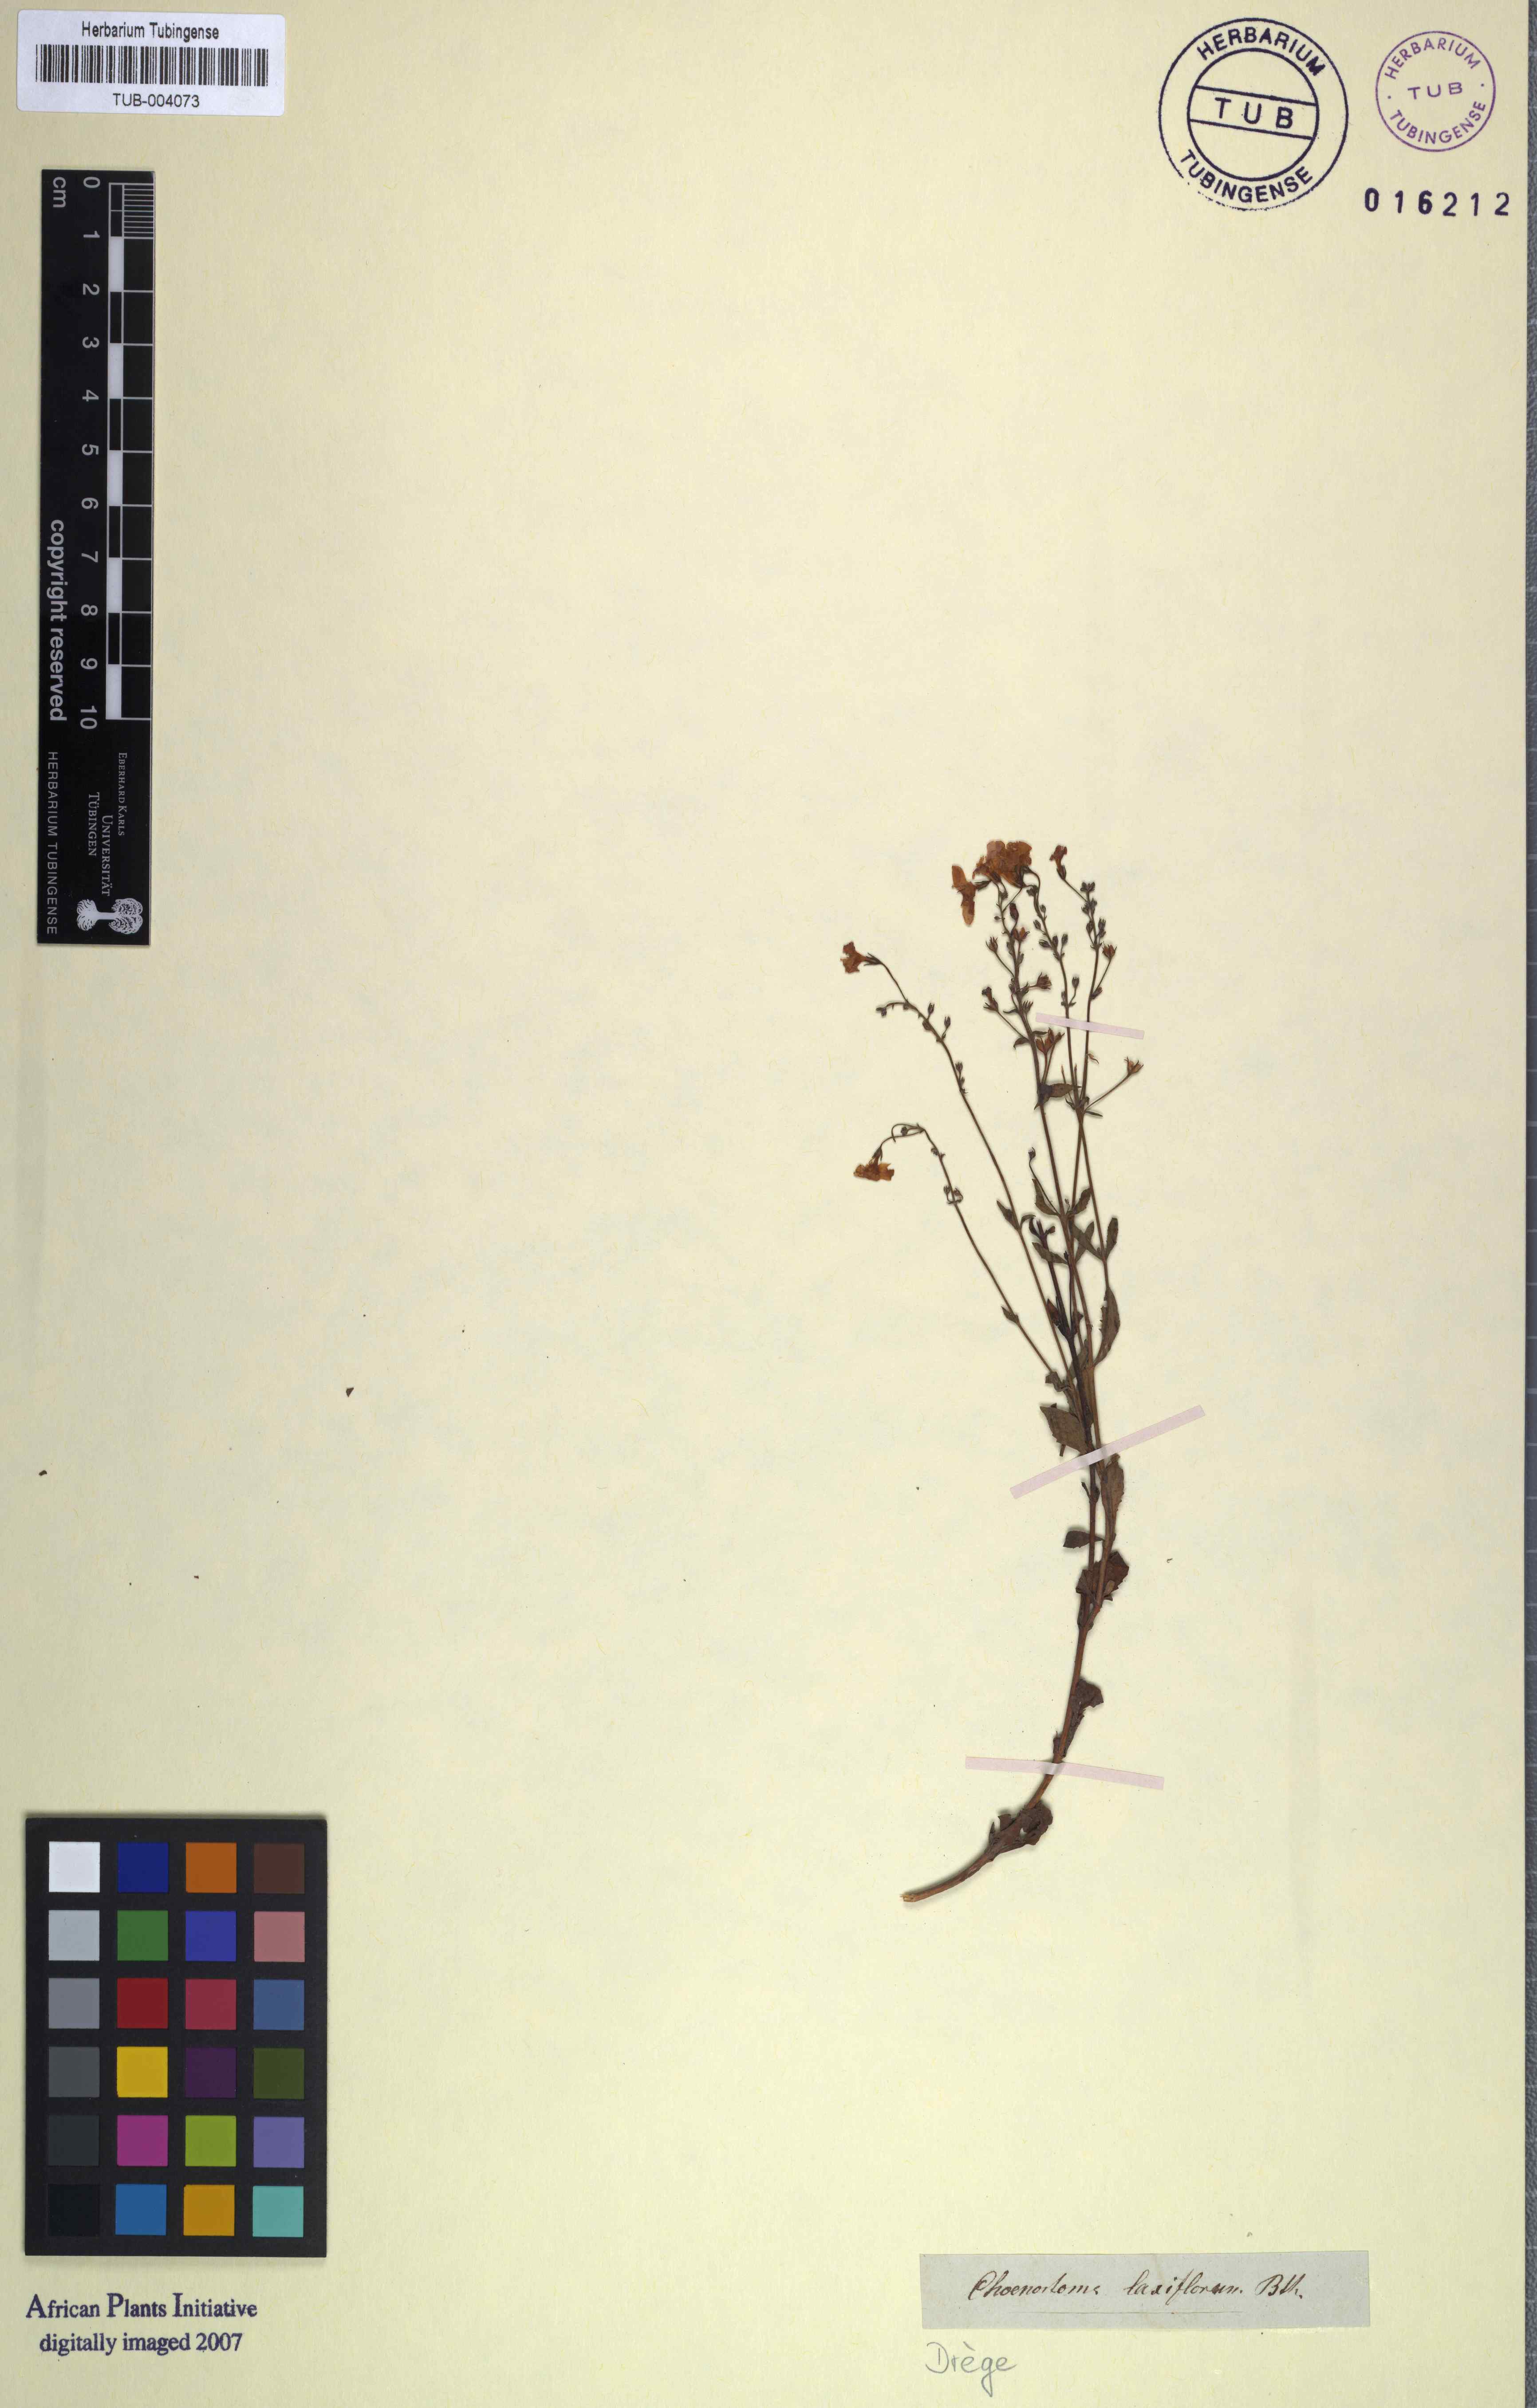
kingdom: Plantae
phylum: Tracheophyta
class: Magnoliopsida
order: Lamiales
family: Scrophulariaceae
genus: Chaenostoma
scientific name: Chaenostoma halimifolium
